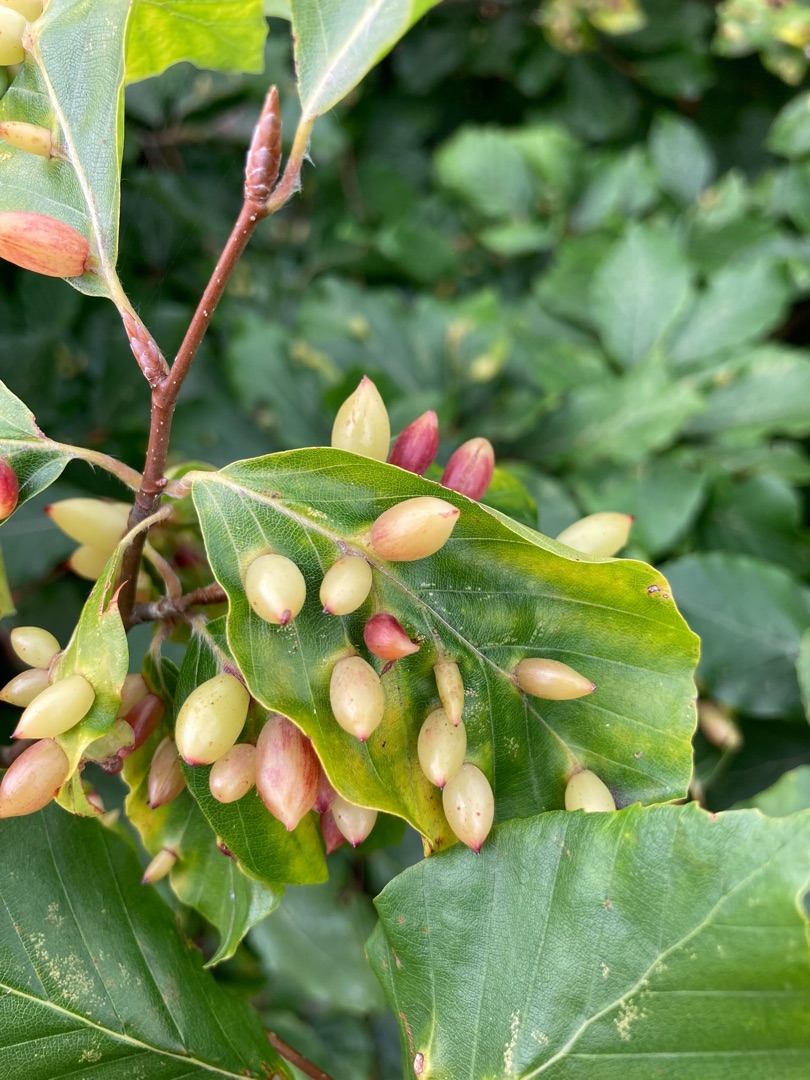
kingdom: Animalia
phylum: Arthropoda
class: Insecta
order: Diptera
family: Cecidomyiidae
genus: Mikiola
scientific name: Mikiola fagi
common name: Bøgegalmyg
